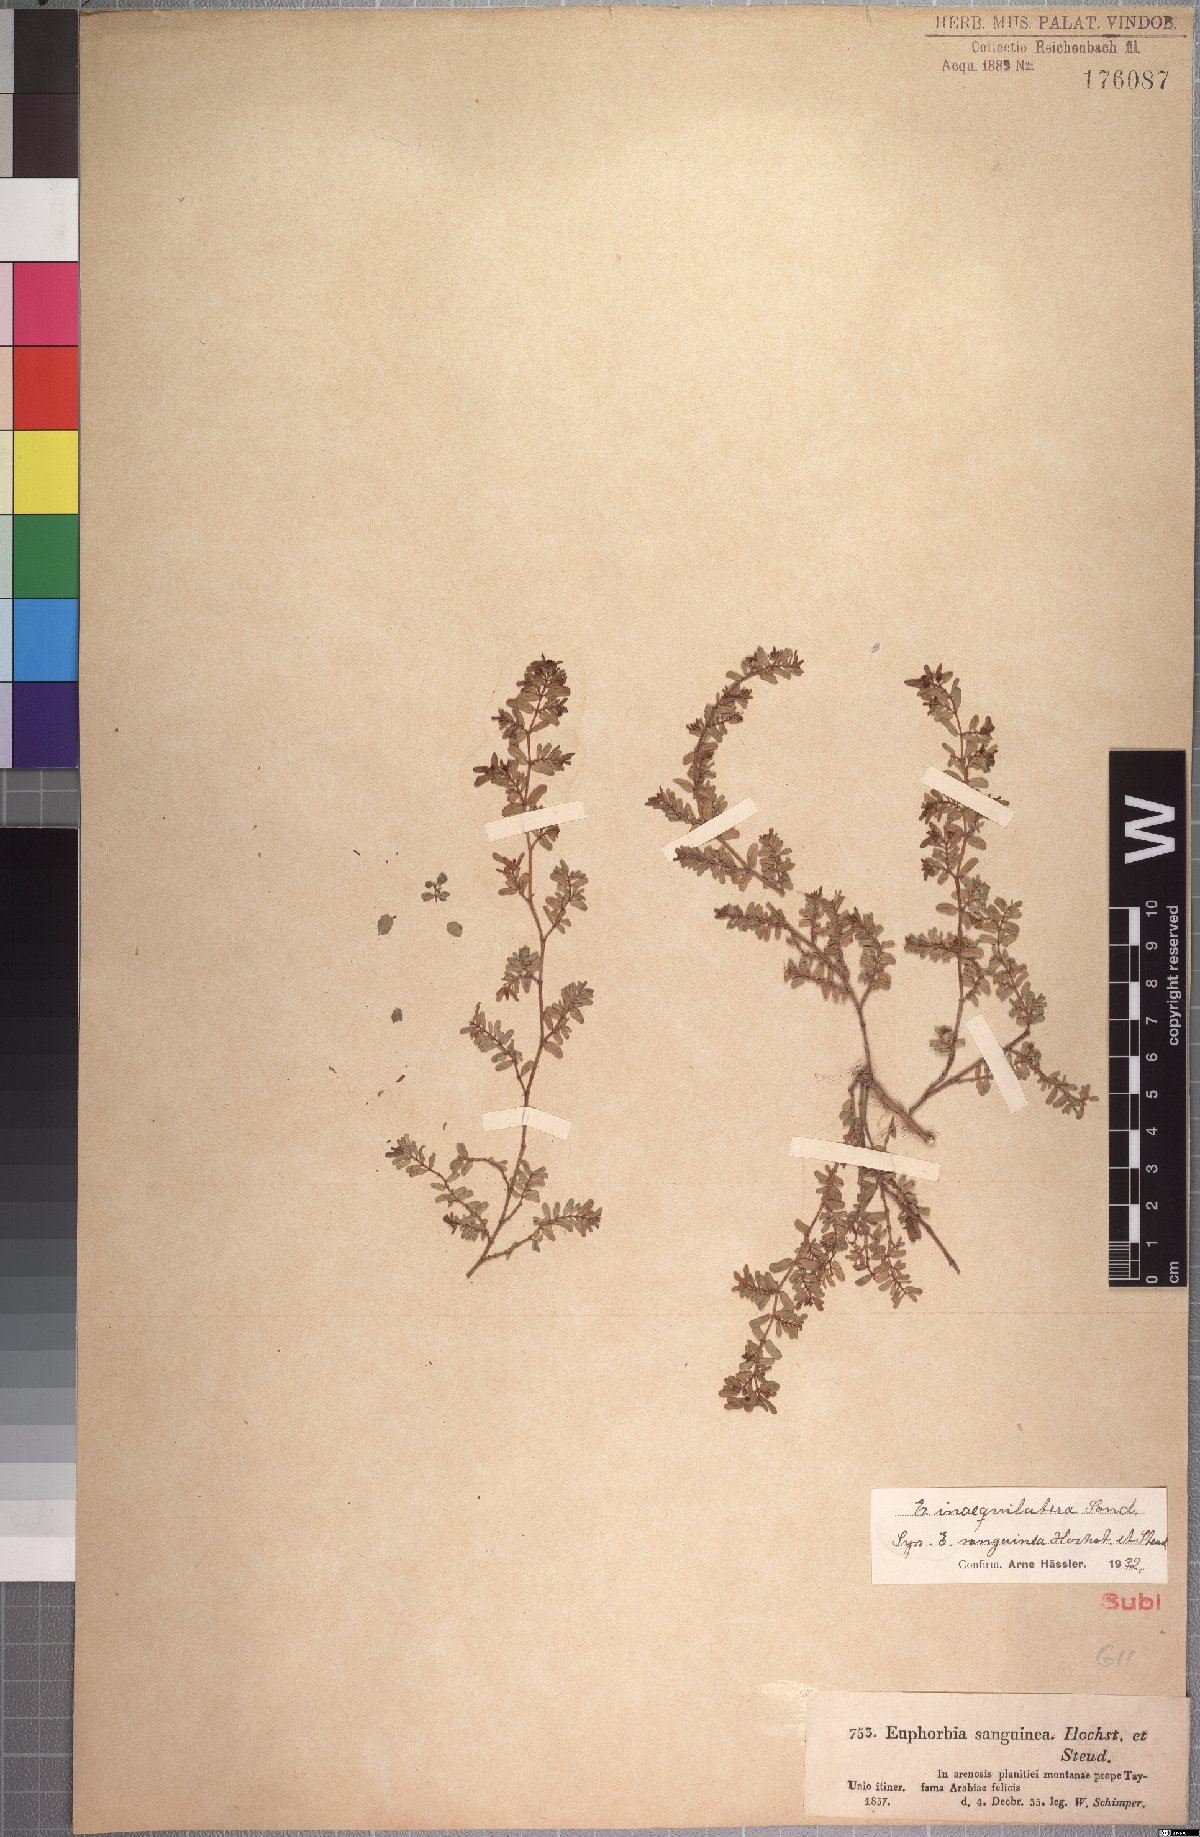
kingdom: Plantae
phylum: Tracheophyta
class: Magnoliopsida
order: Malpighiales
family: Euphorbiaceae
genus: Euphorbia
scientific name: Euphorbia inaequilatera
